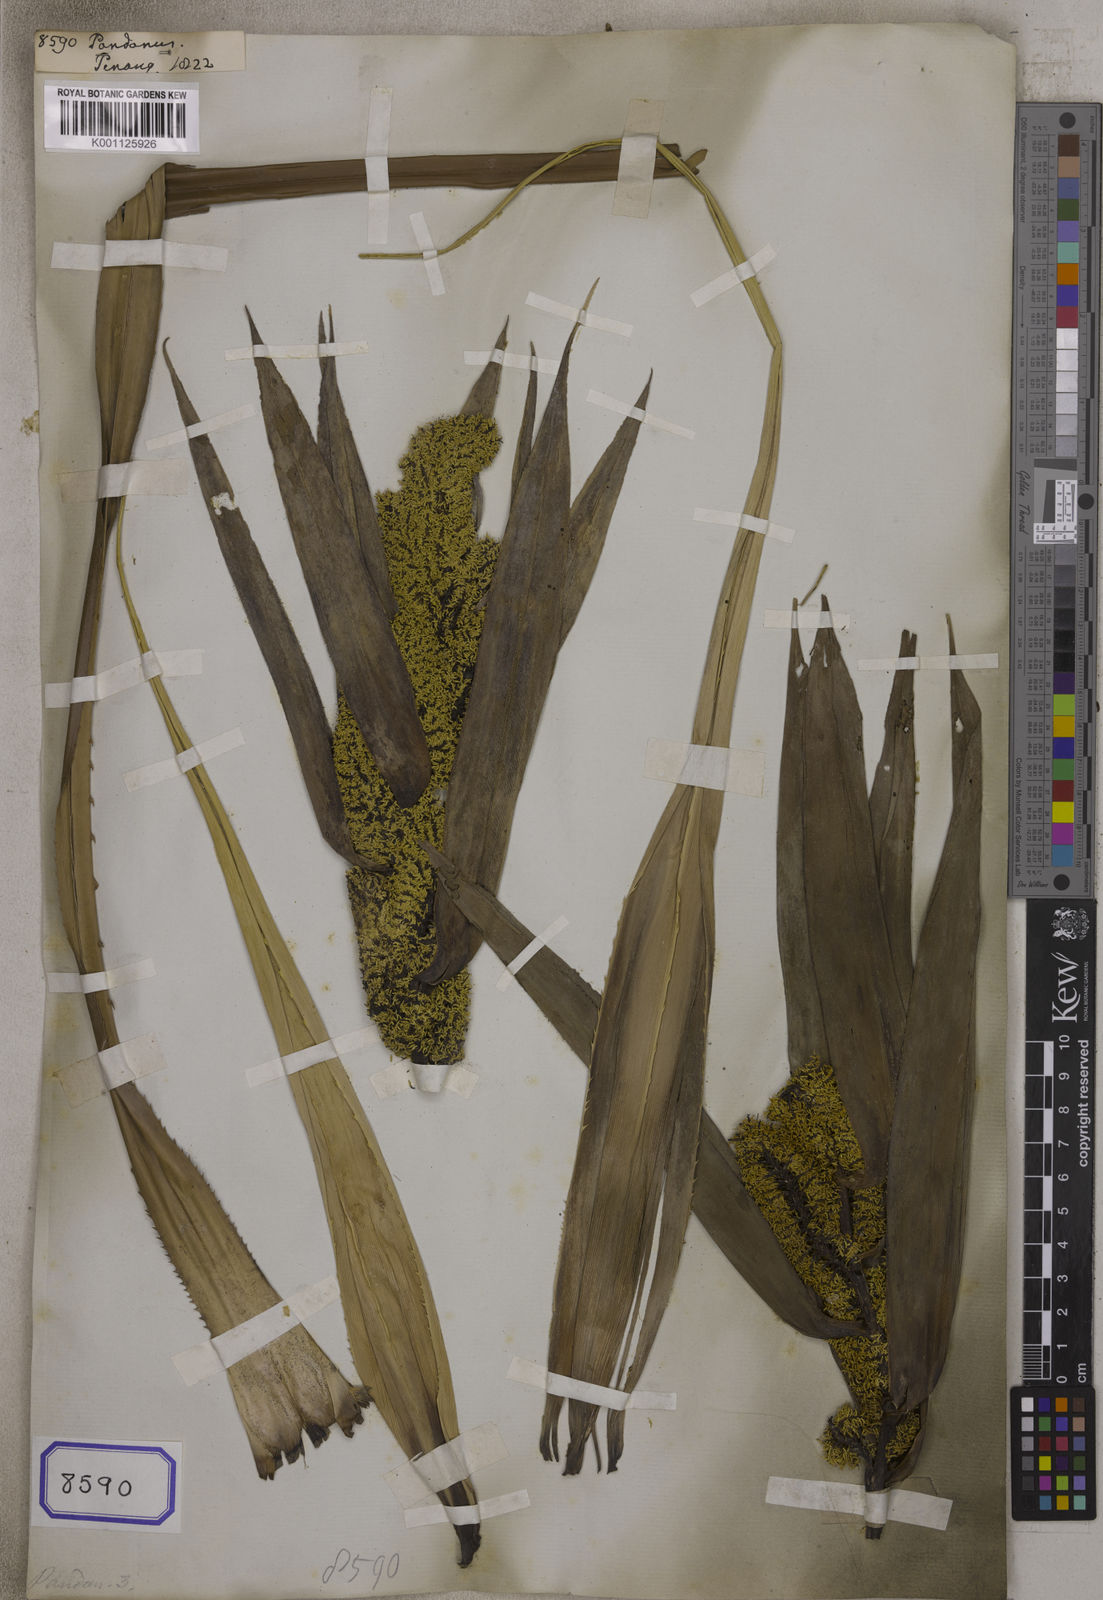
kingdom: Plantae
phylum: Tracheophyta
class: Liliopsida
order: Pandanales
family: Pandanaceae
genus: Pandanus
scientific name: Pandanus
